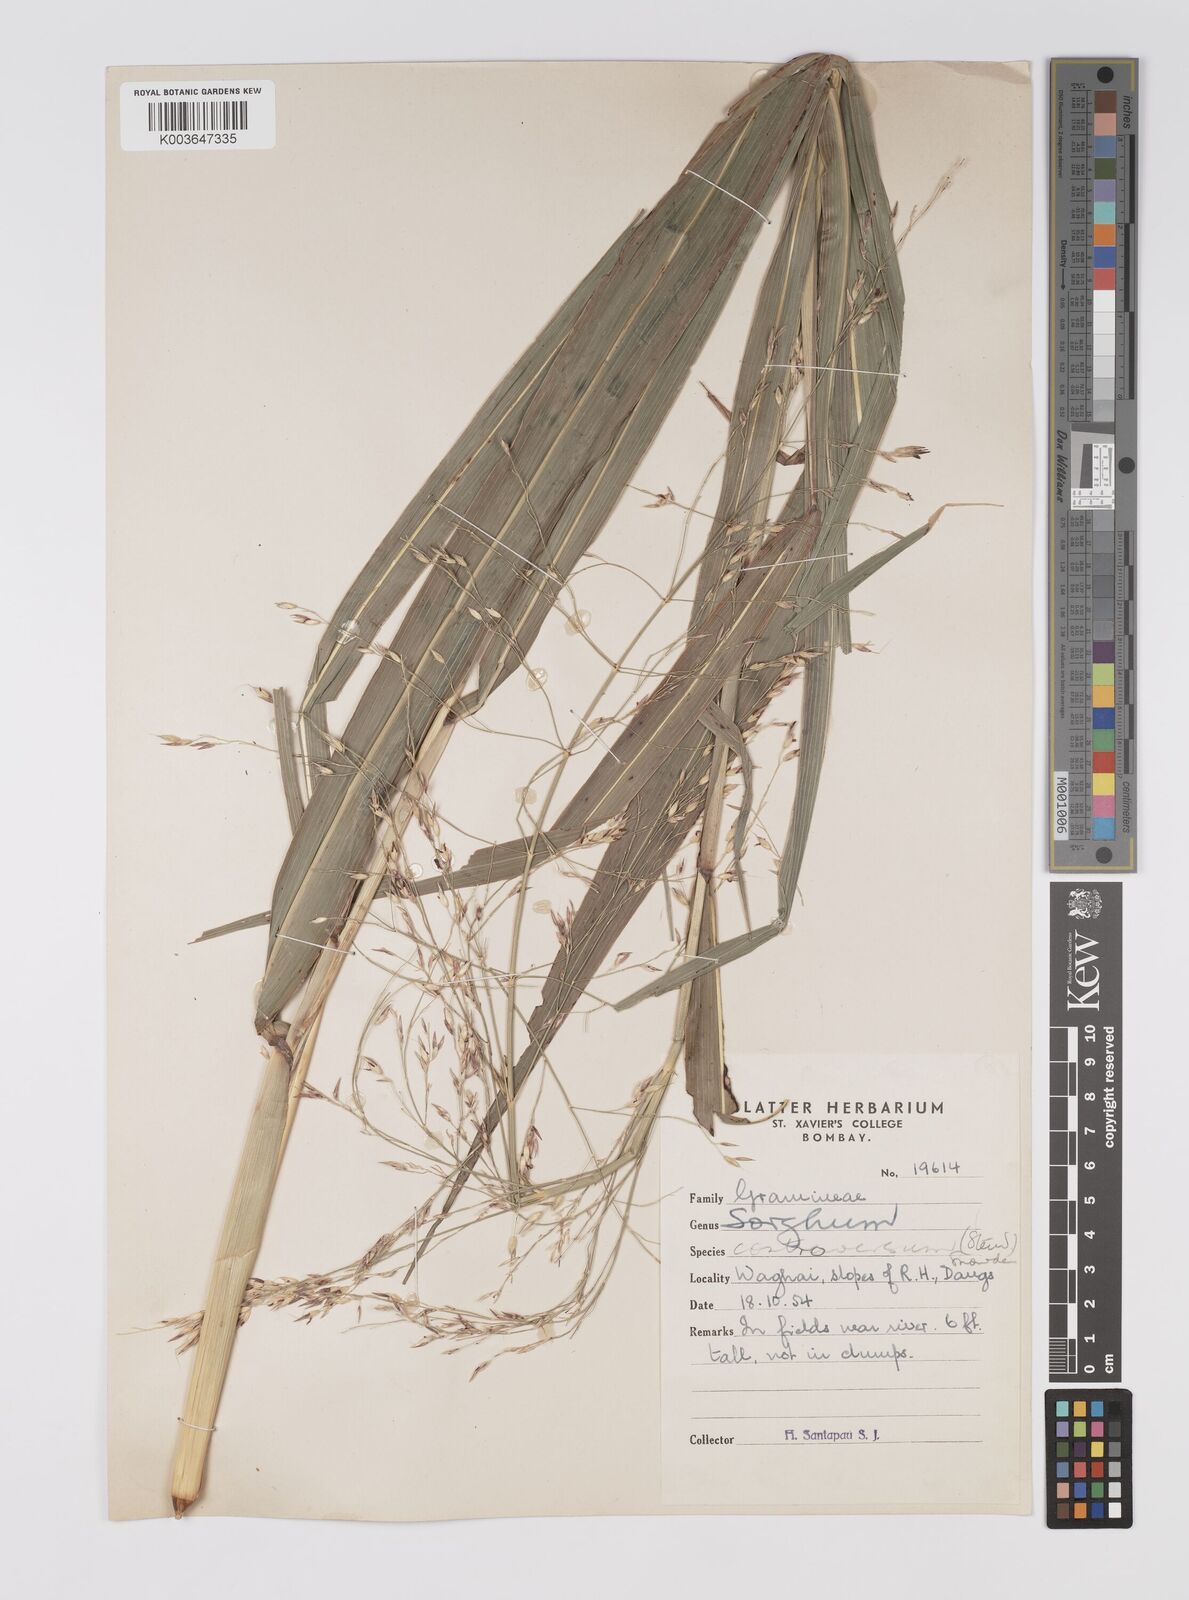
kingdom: Plantae
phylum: Tracheophyta
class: Liliopsida
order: Poales
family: Poaceae
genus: Sorghum
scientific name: Sorghum controversum
